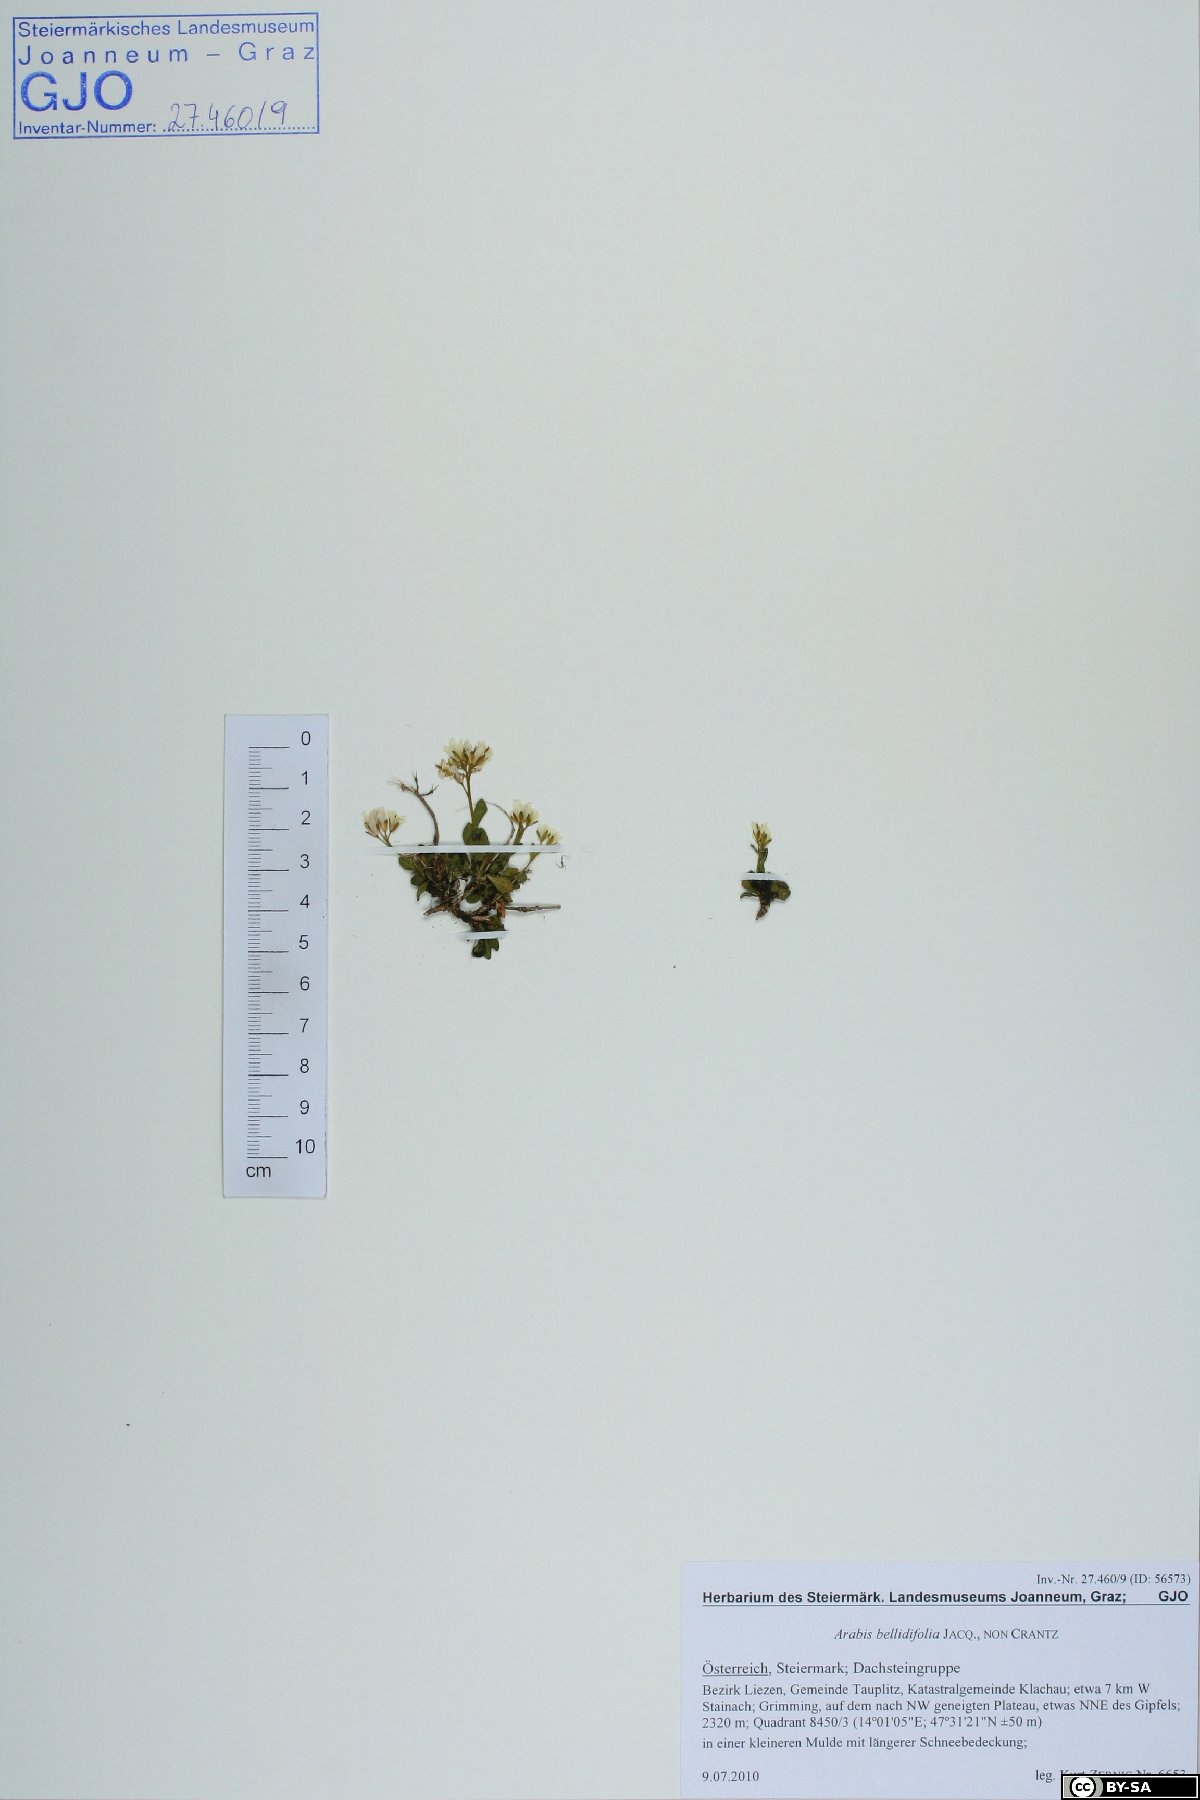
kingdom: Plantae
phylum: Tracheophyta
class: Magnoliopsida
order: Brassicales
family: Brassicaceae
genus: Arabis
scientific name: Arabis soyeri
